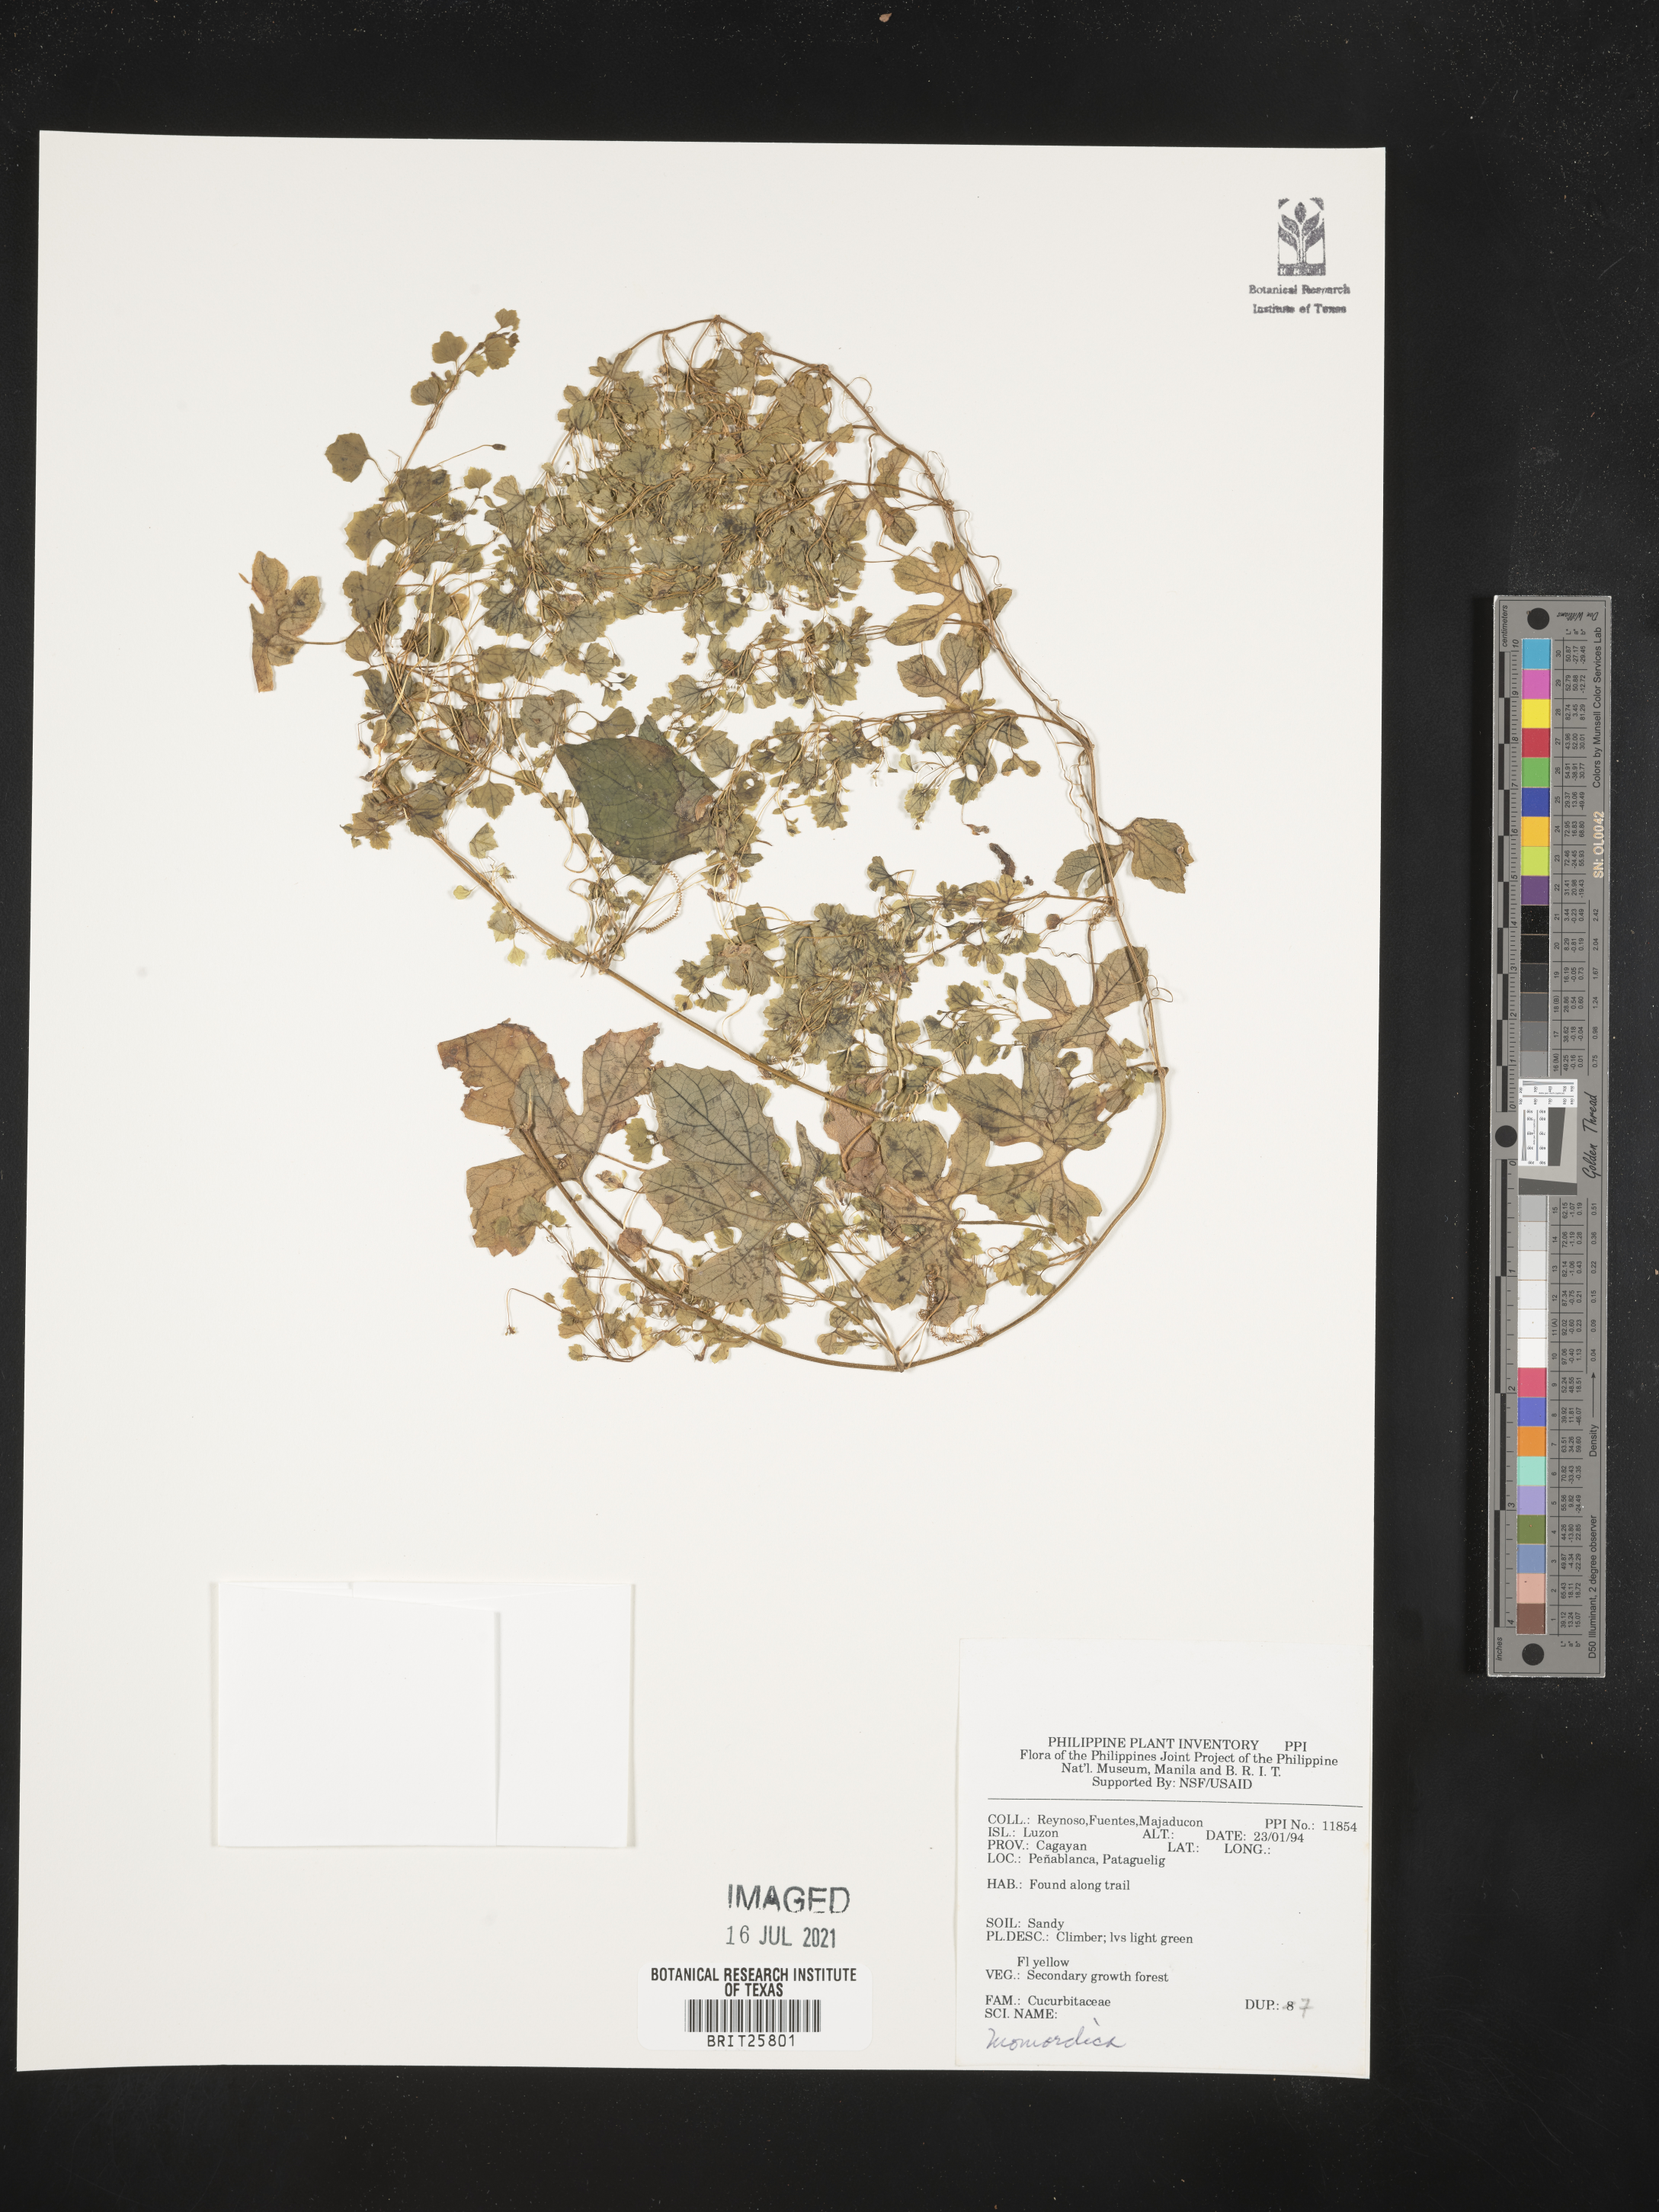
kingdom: Plantae
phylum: Tracheophyta
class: Magnoliopsida
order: Cucurbitales
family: Cucurbitaceae
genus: Momordica
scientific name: Momordica
